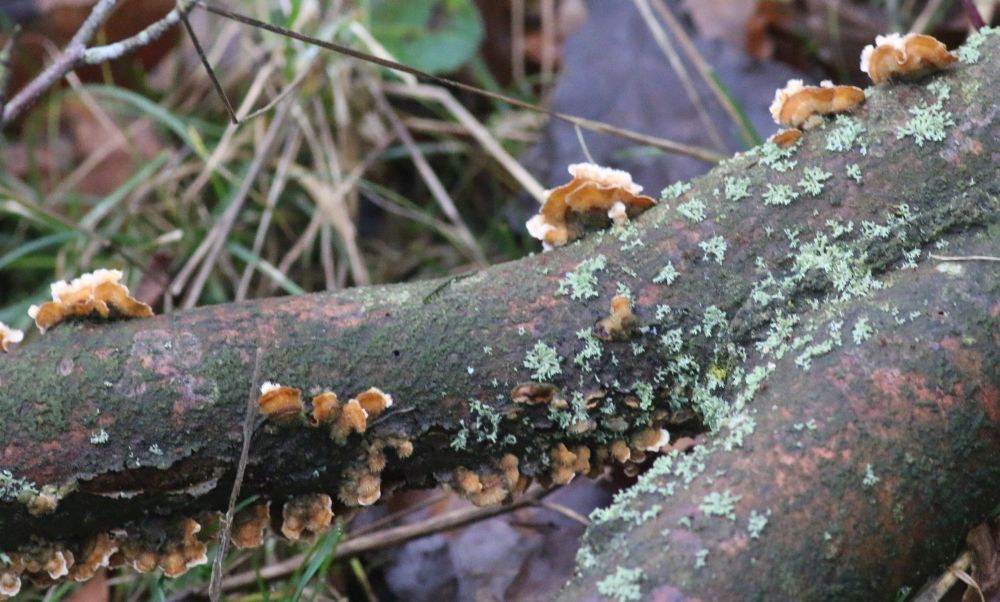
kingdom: Fungi
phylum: Basidiomycota
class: Agaricomycetes
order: Russulales
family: Stereaceae
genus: Stereum
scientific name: Stereum hirsutum
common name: håret lædersvamp
